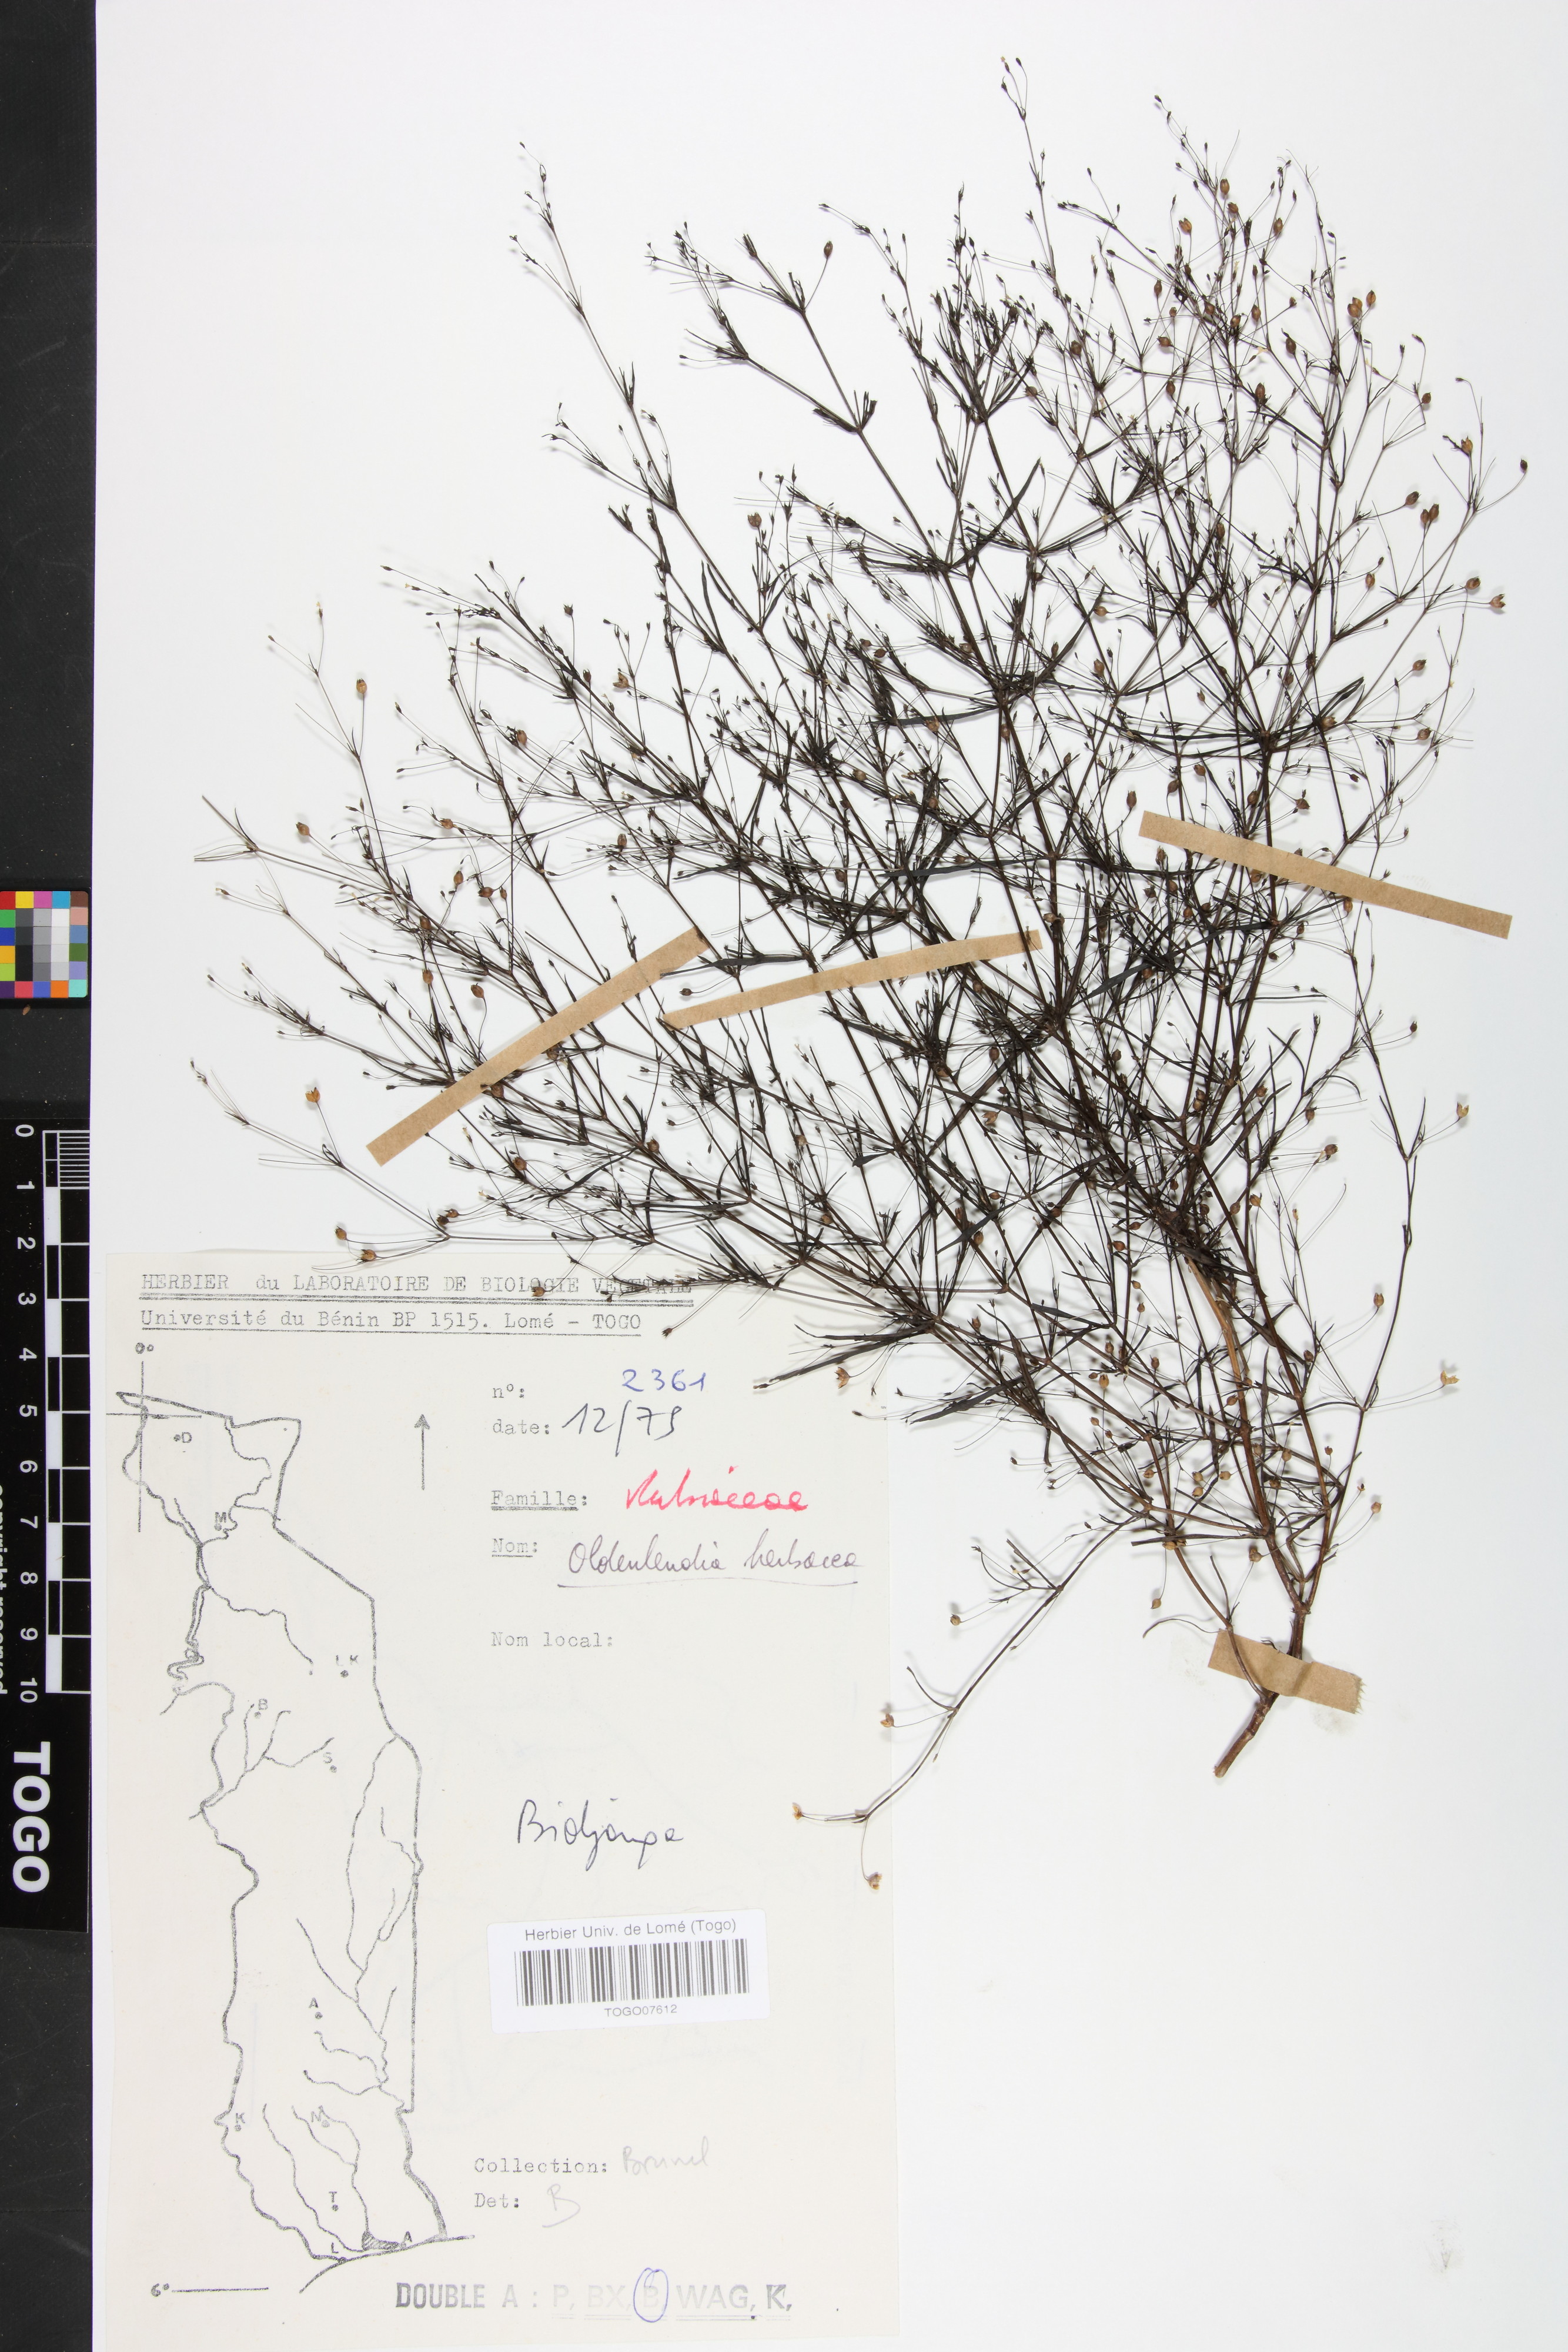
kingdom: Plantae
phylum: Tracheophyta
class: Magnoliopsida
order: Gentianales
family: Rubiaceae
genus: Oldenlandia
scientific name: Oldenlandia herbacea
